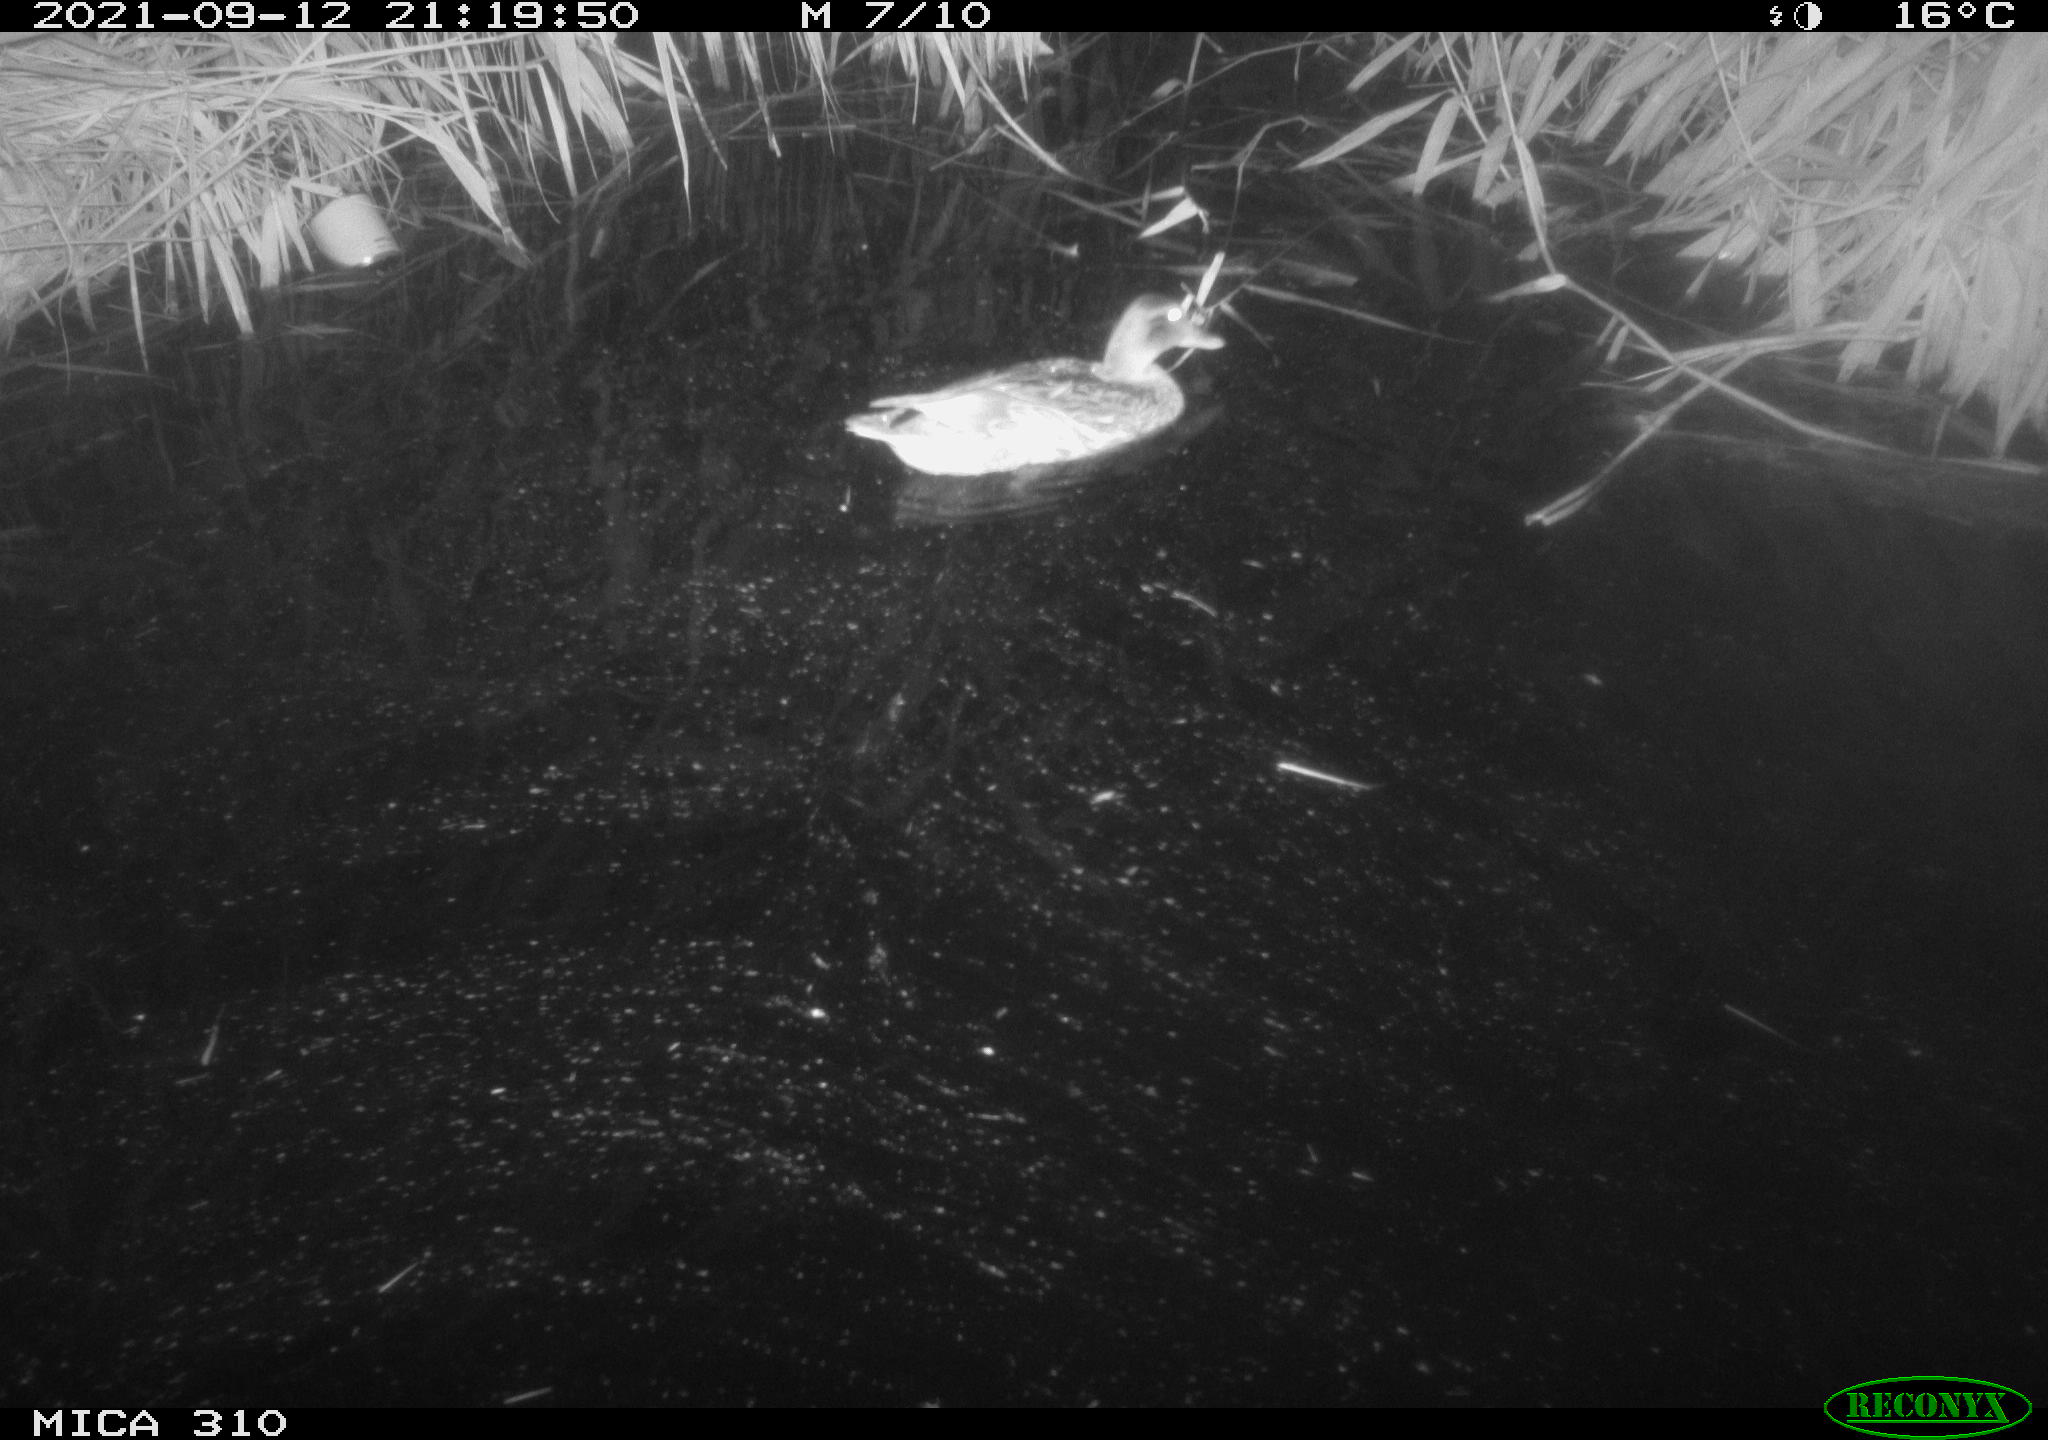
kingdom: Animalia
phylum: Chordata
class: Aves
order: Anseriformes
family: Anatidae
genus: Mareca
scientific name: Mareca strepera
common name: Gadwall
